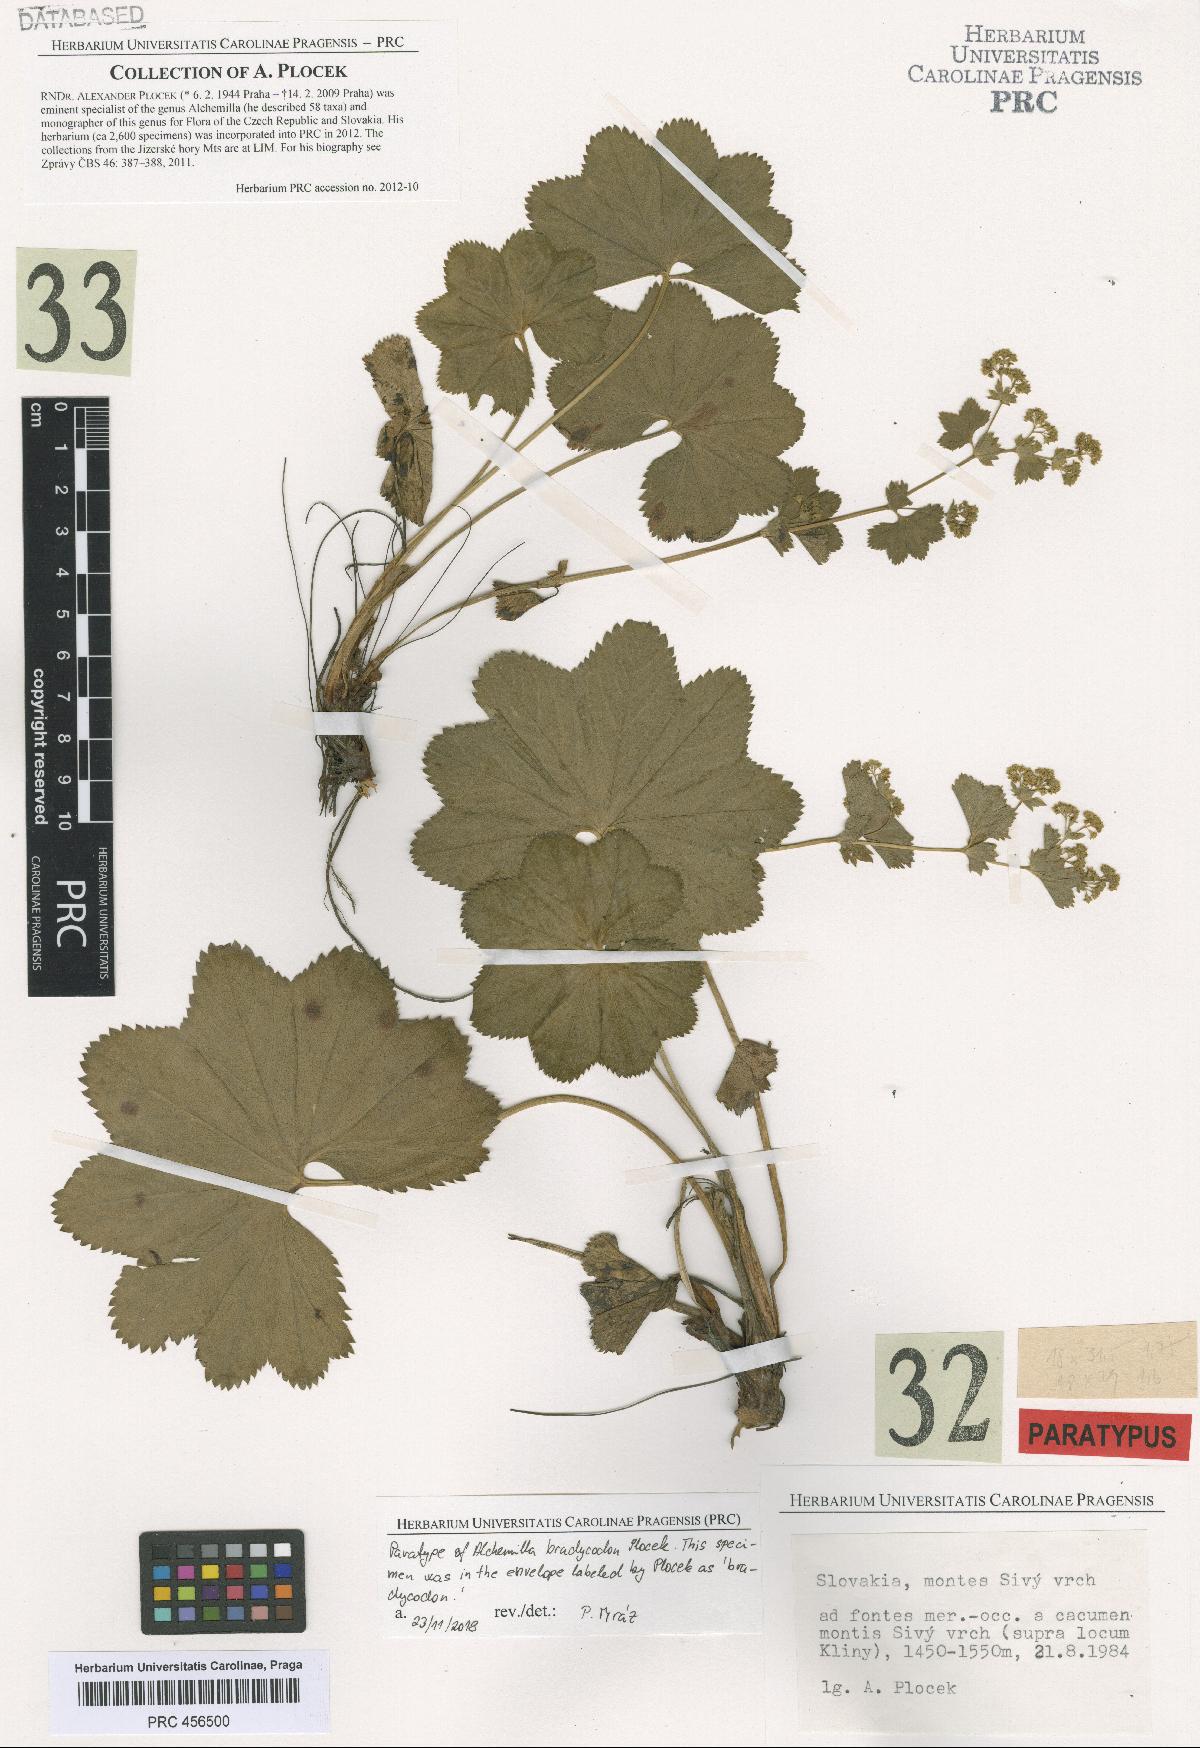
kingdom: Plantae
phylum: Tracheophyta
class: Magnoliopsida
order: Rosales
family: Rosaceae
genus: Alchemilla
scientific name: Alchemilla brachycodon
